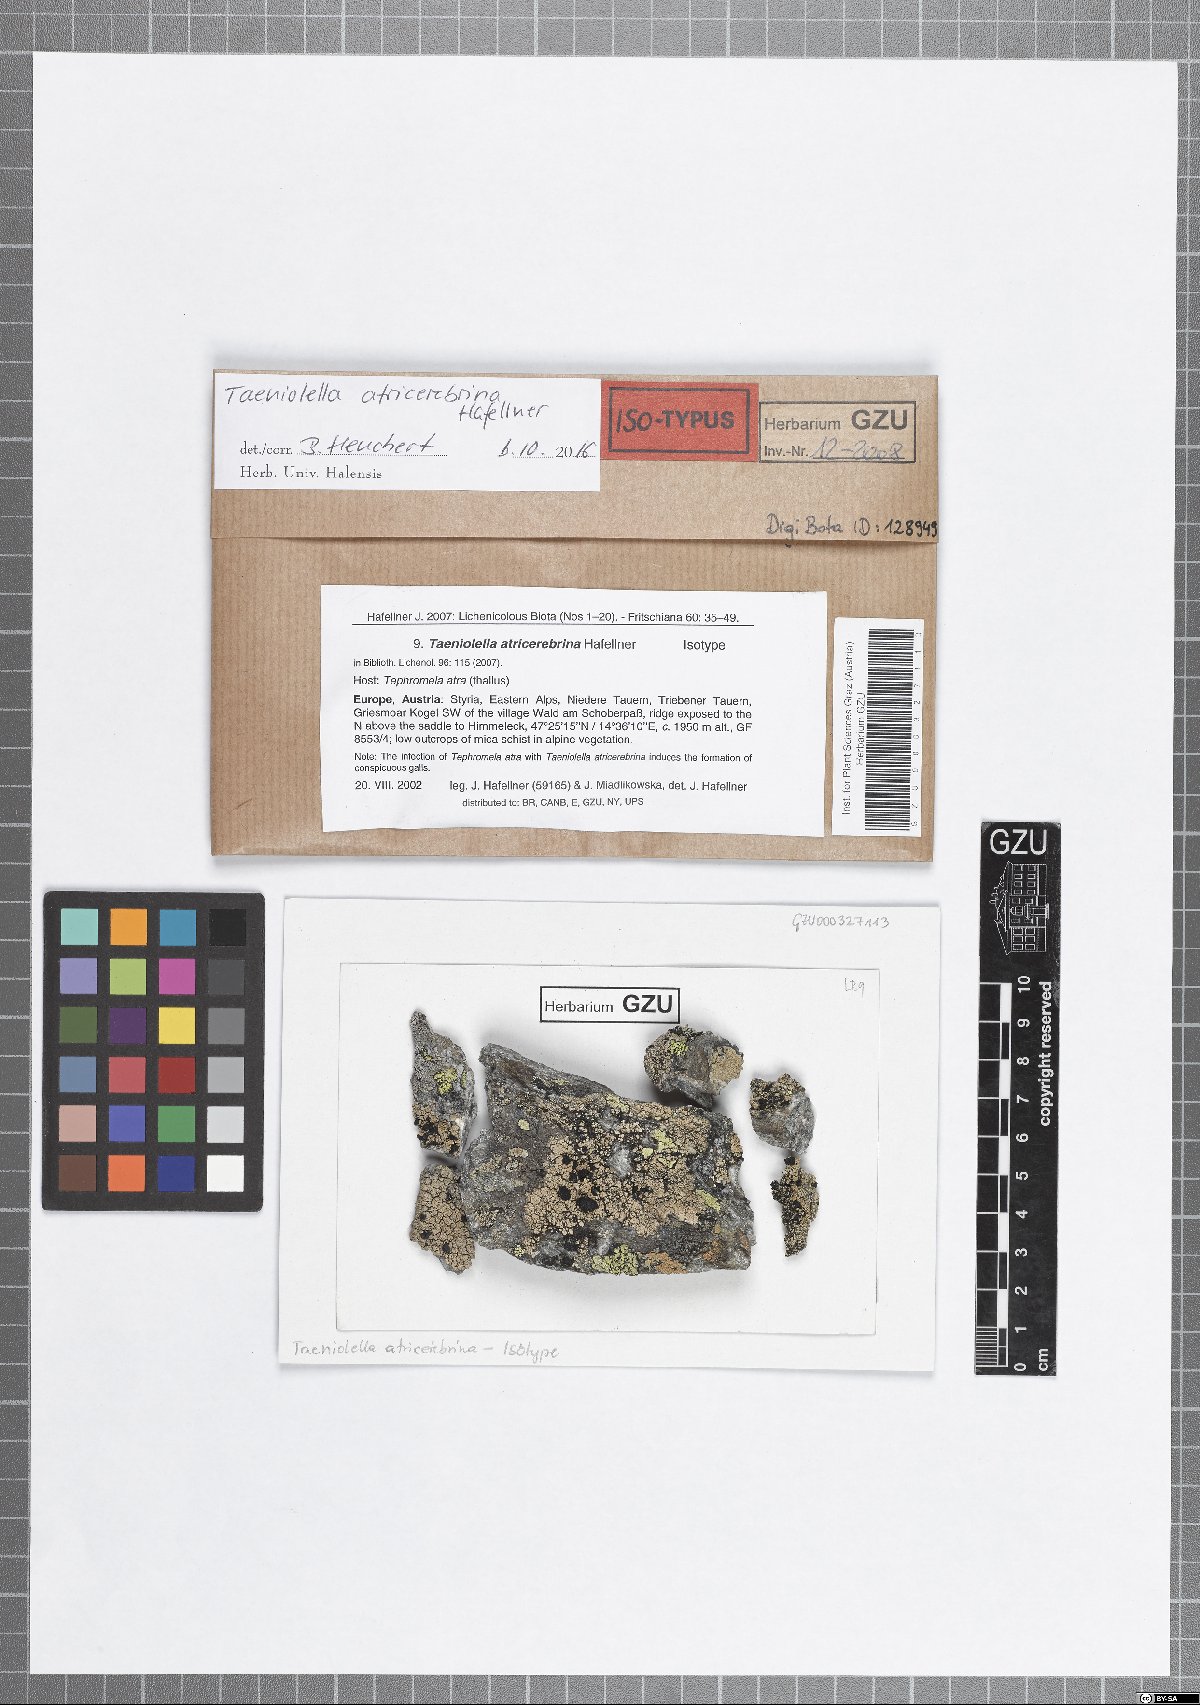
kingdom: Fungi
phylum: Ascomycota
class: Dothideomycetes
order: Mytilinidiales
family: Mytilinidiaceae
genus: Taeniolella
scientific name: Taeniolella atricerebrina
